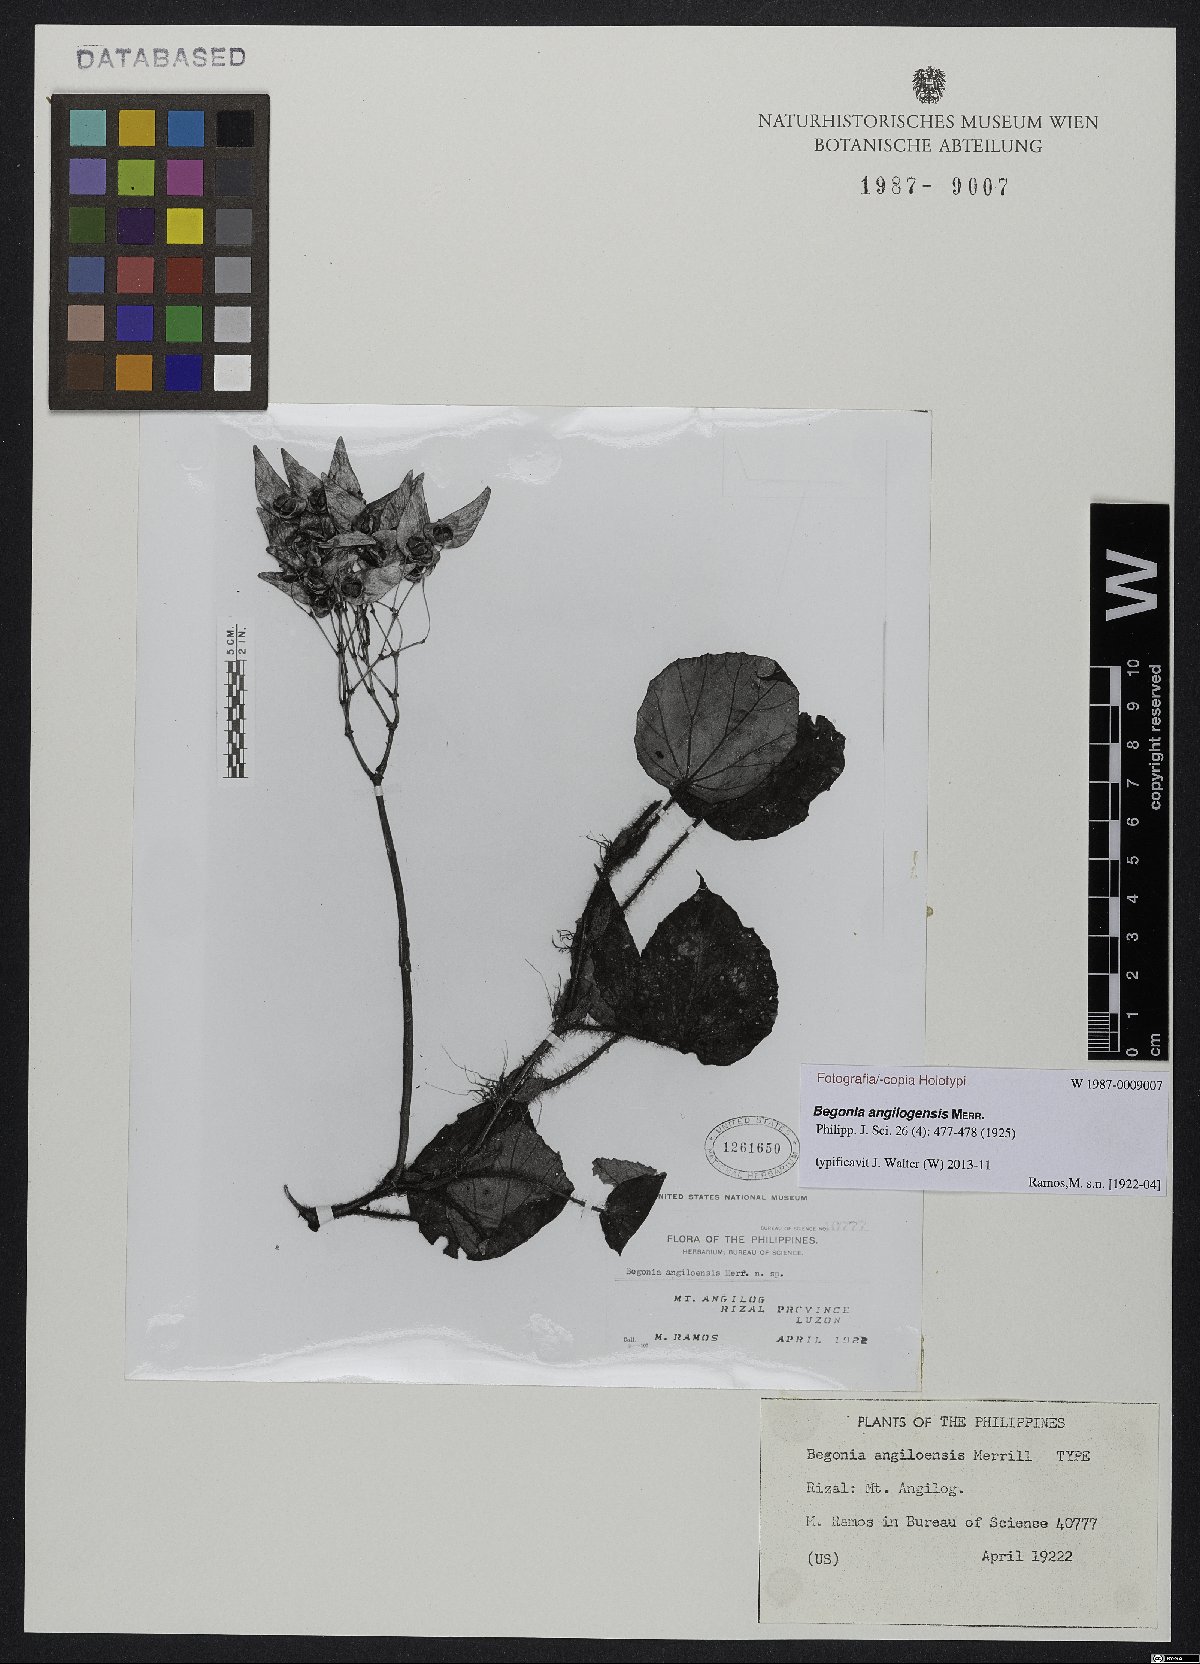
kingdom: Plantae
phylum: Tracheophyta
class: Magnoliopsida
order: Cucurbitales
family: Begoniaceae
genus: Begonia
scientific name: Begonia angilogensis
